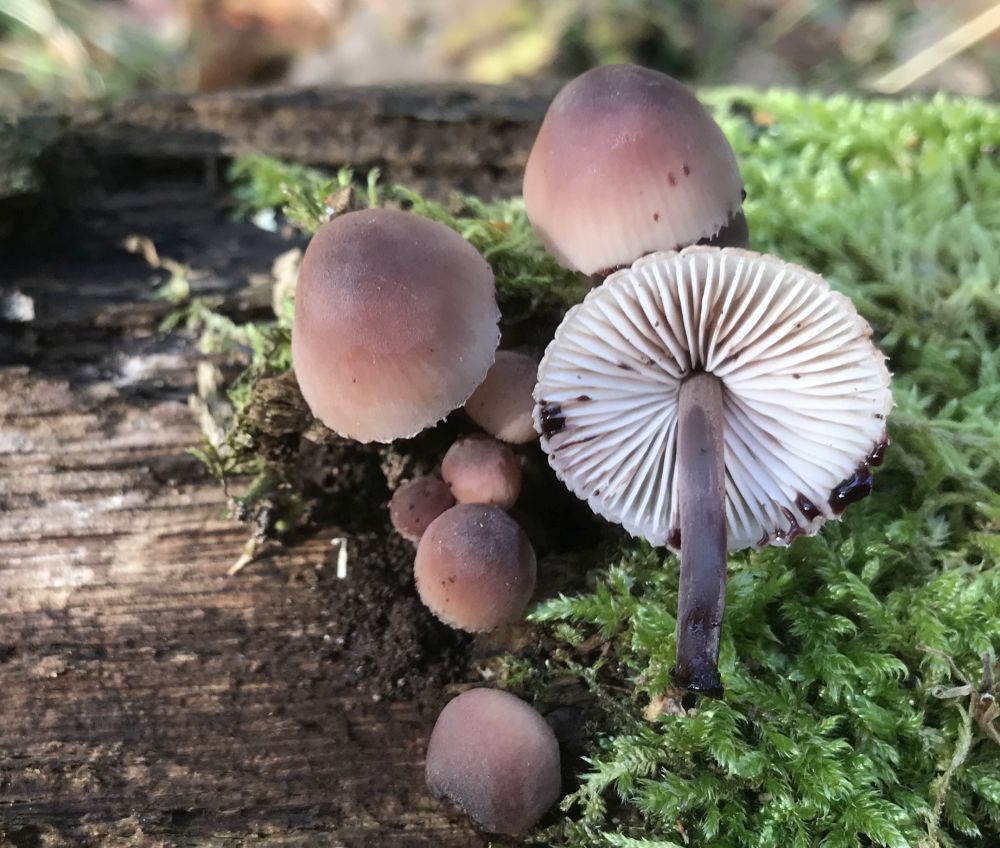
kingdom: Fungi
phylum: Basidiomycota
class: Agaricomycetes
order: Agaricales
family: Mycenaceae
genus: Mycena
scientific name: Mycena haematopus
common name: blødende huesvamp
